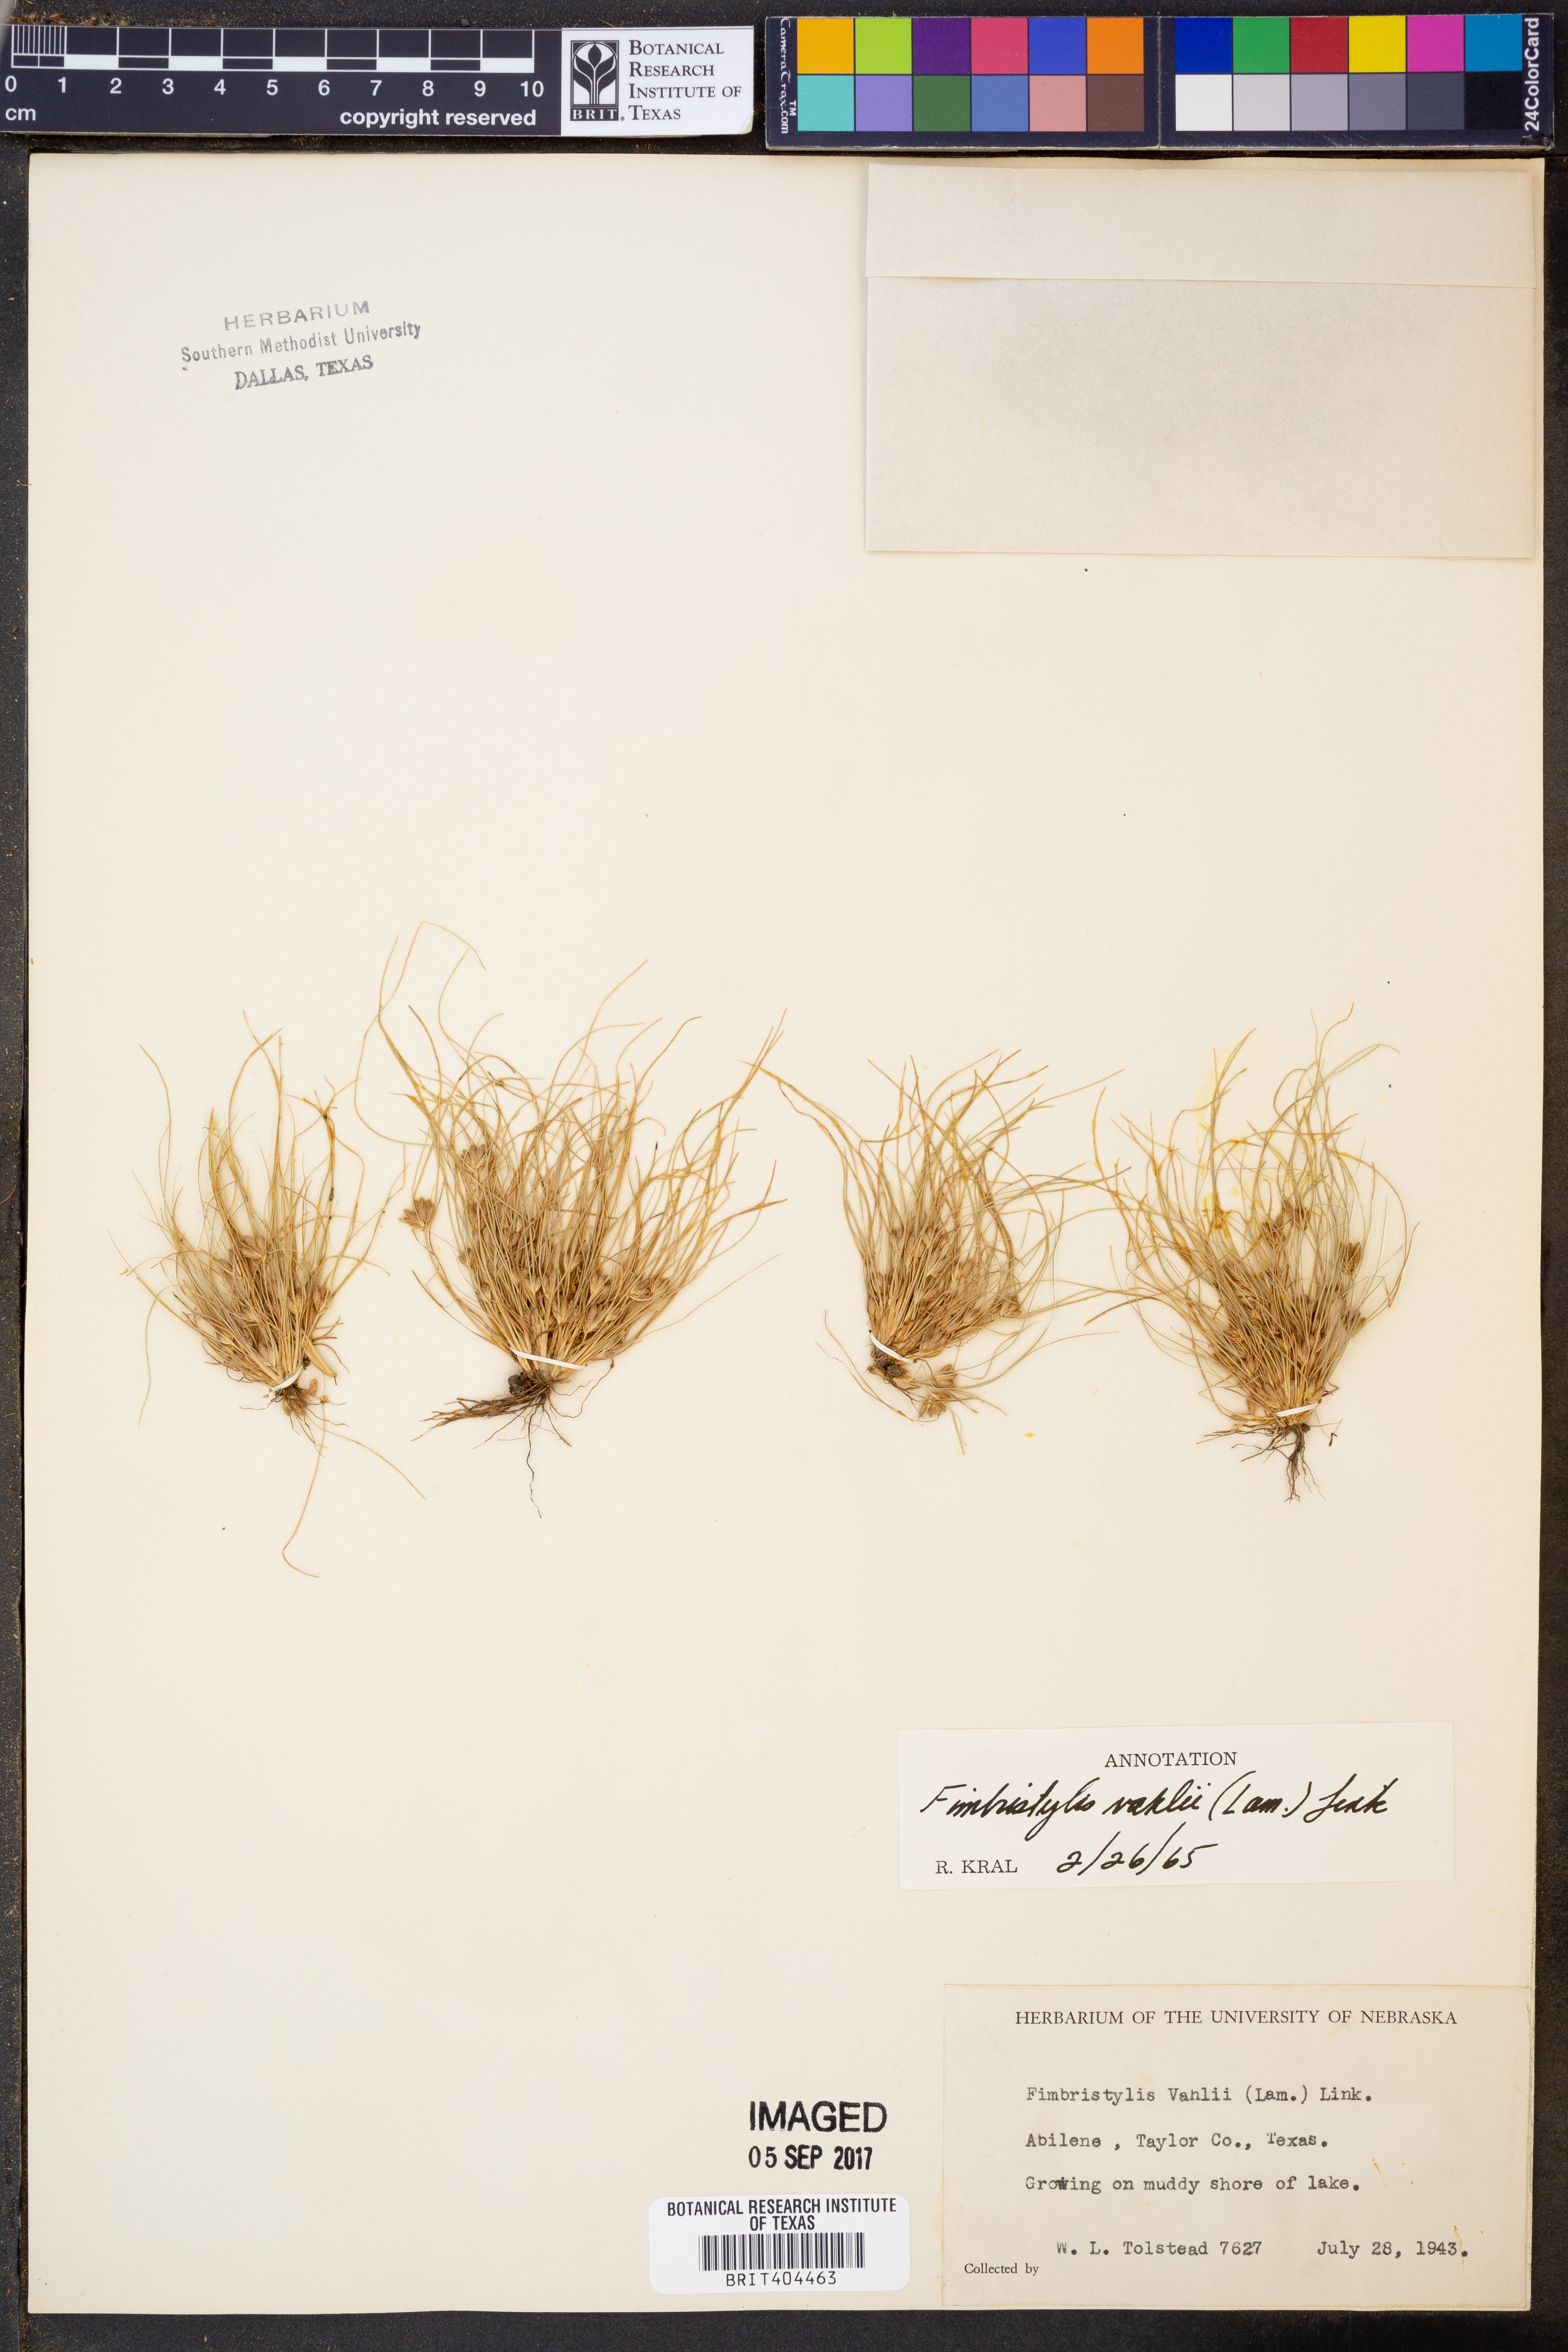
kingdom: Plantae
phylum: Tracheophyta
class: Liliopsida
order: Poales
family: Cyperaceae
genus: Fimbristylis
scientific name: Fimbristylis vahlii
